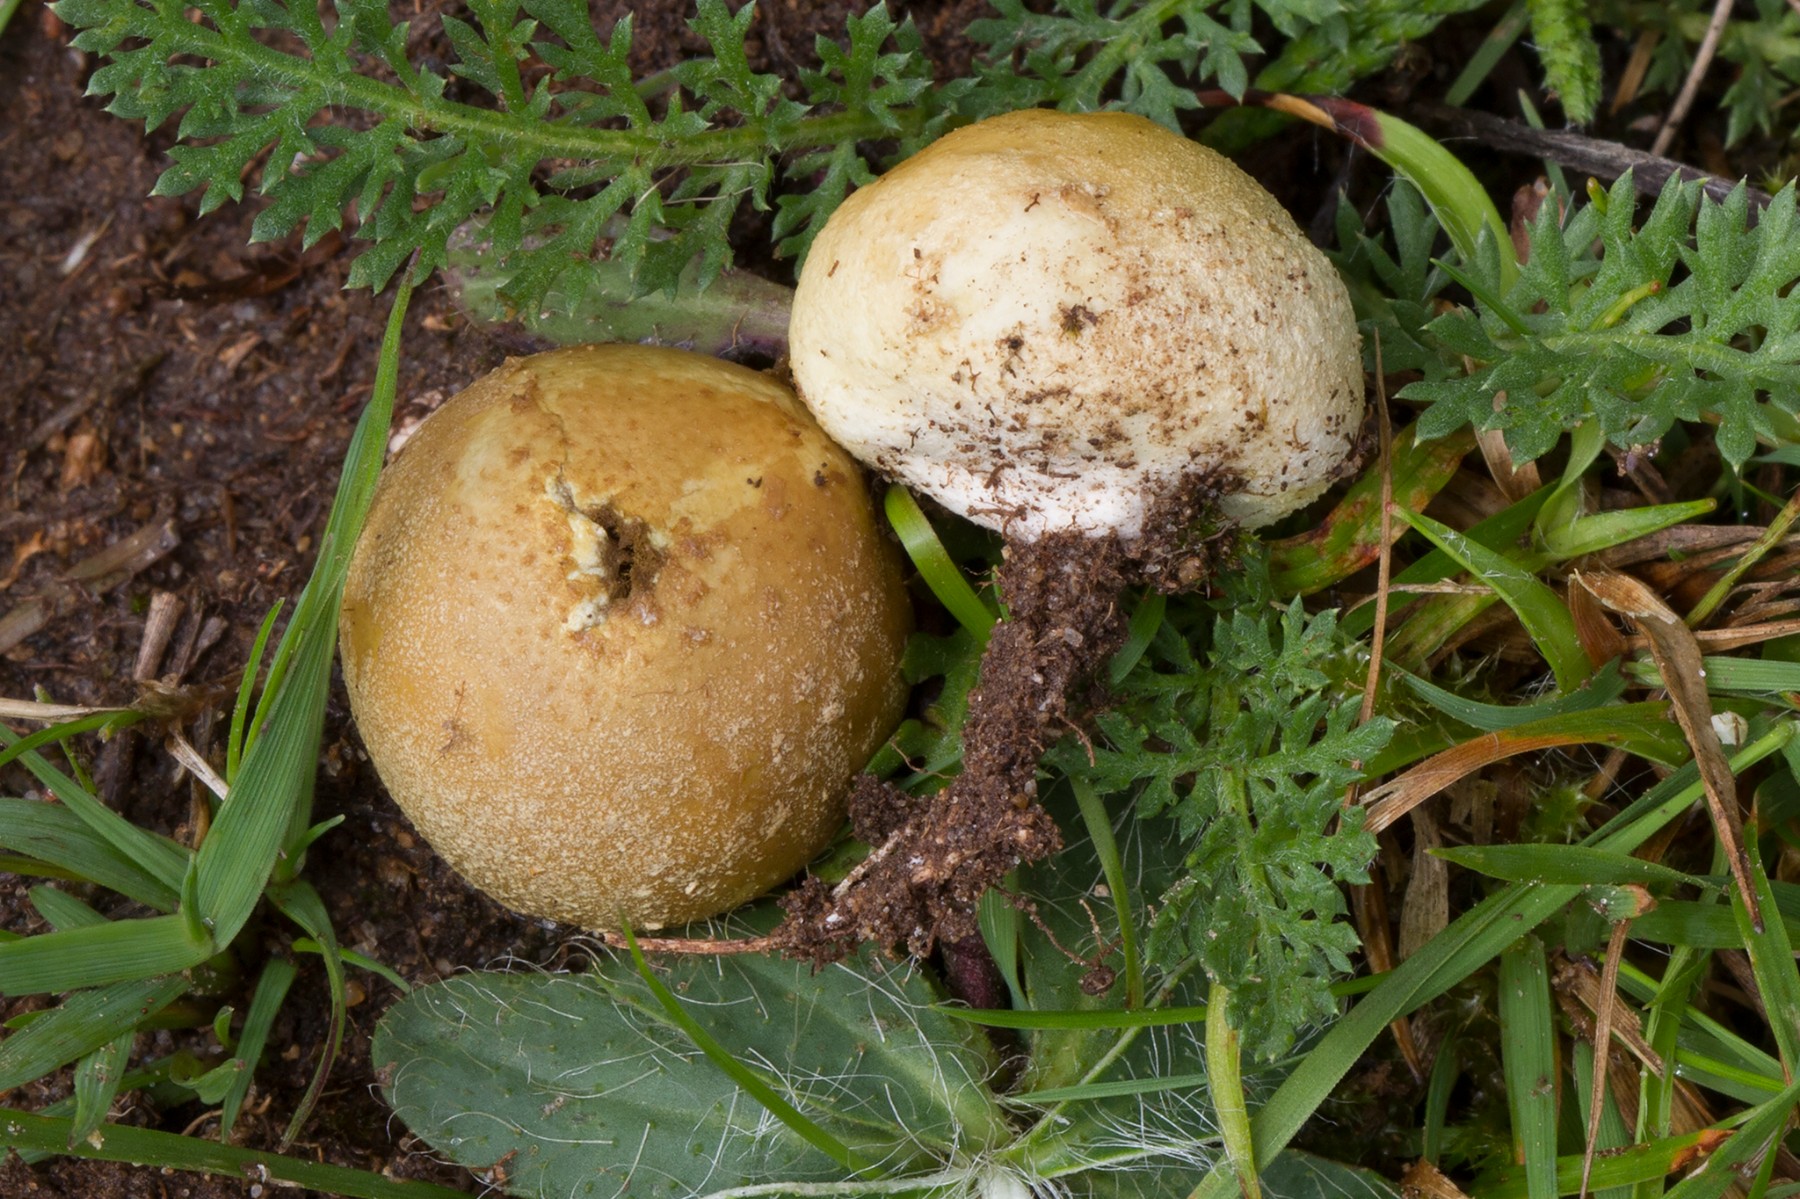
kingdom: Fungi
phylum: Basidiomycota
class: Agaricomycetes
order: Agaricales
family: Lycoperdaceae
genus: Lycoperdon
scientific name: Lycoperdon dermoxanthum
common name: Dwarf puffball
